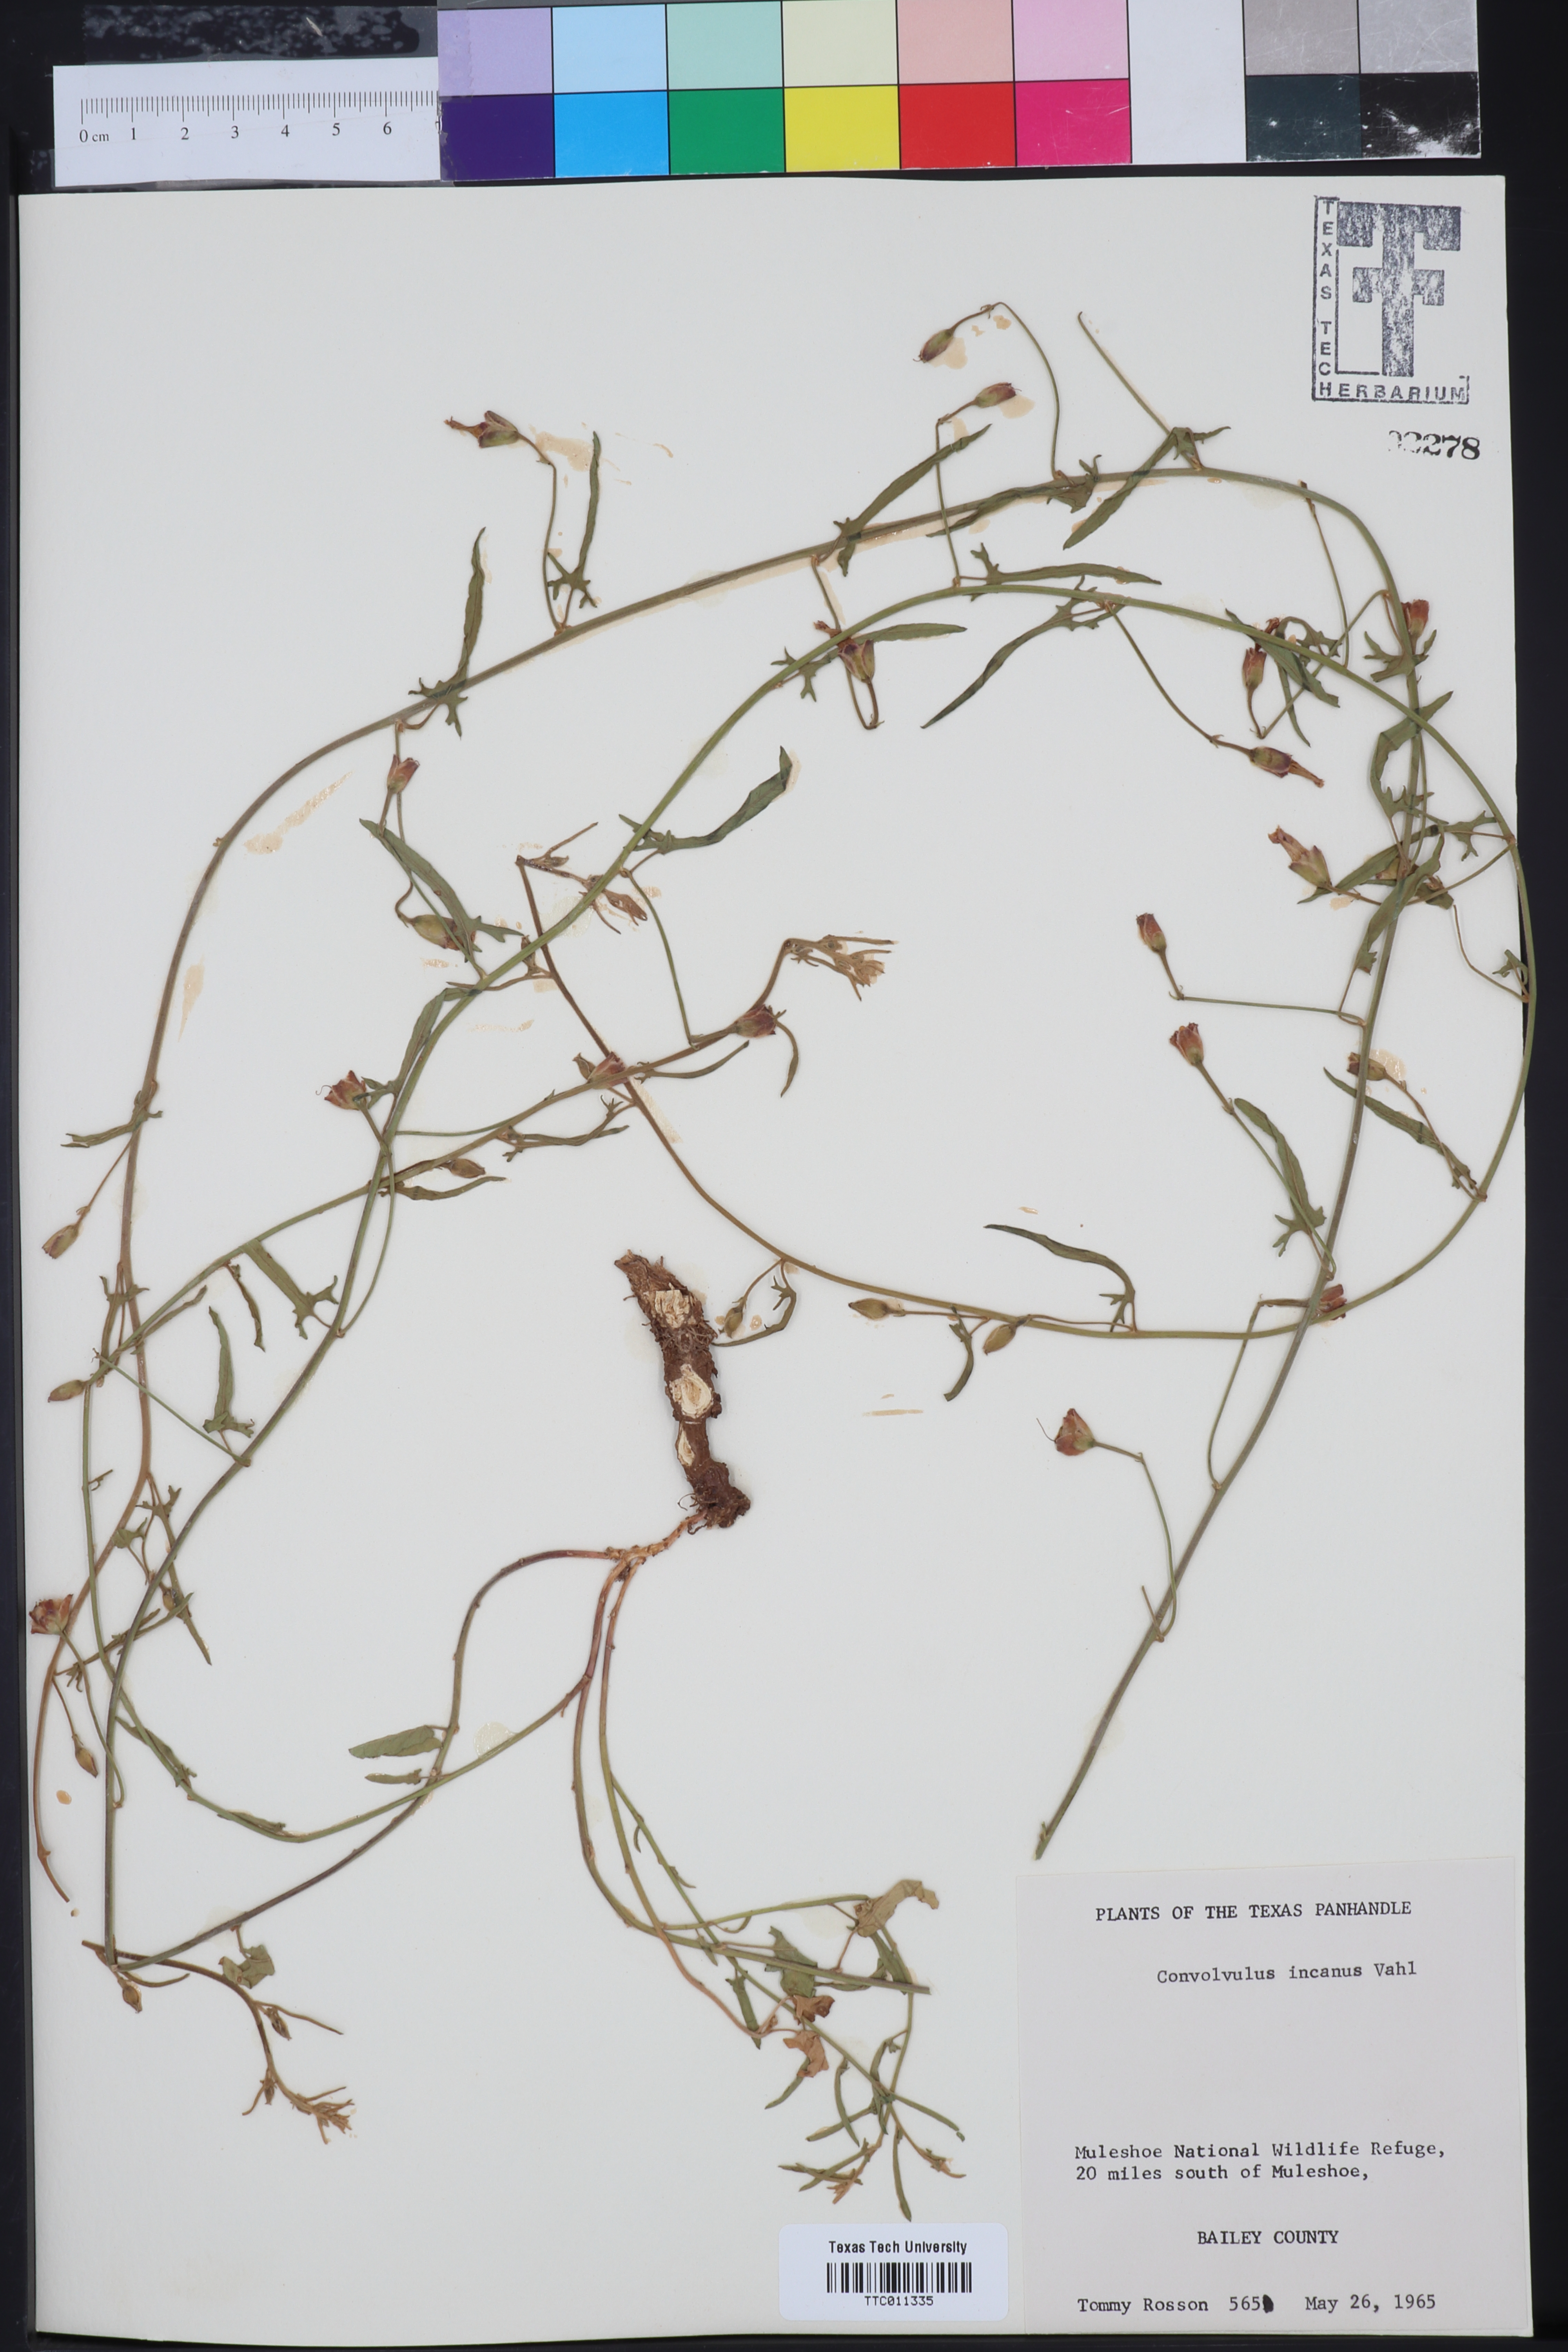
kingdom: Plantae
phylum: Tracheophyta
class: Magnoliopsida
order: Solanales
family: Convolvulaceae
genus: Convolvulus
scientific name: Convolvulus hermanniae
